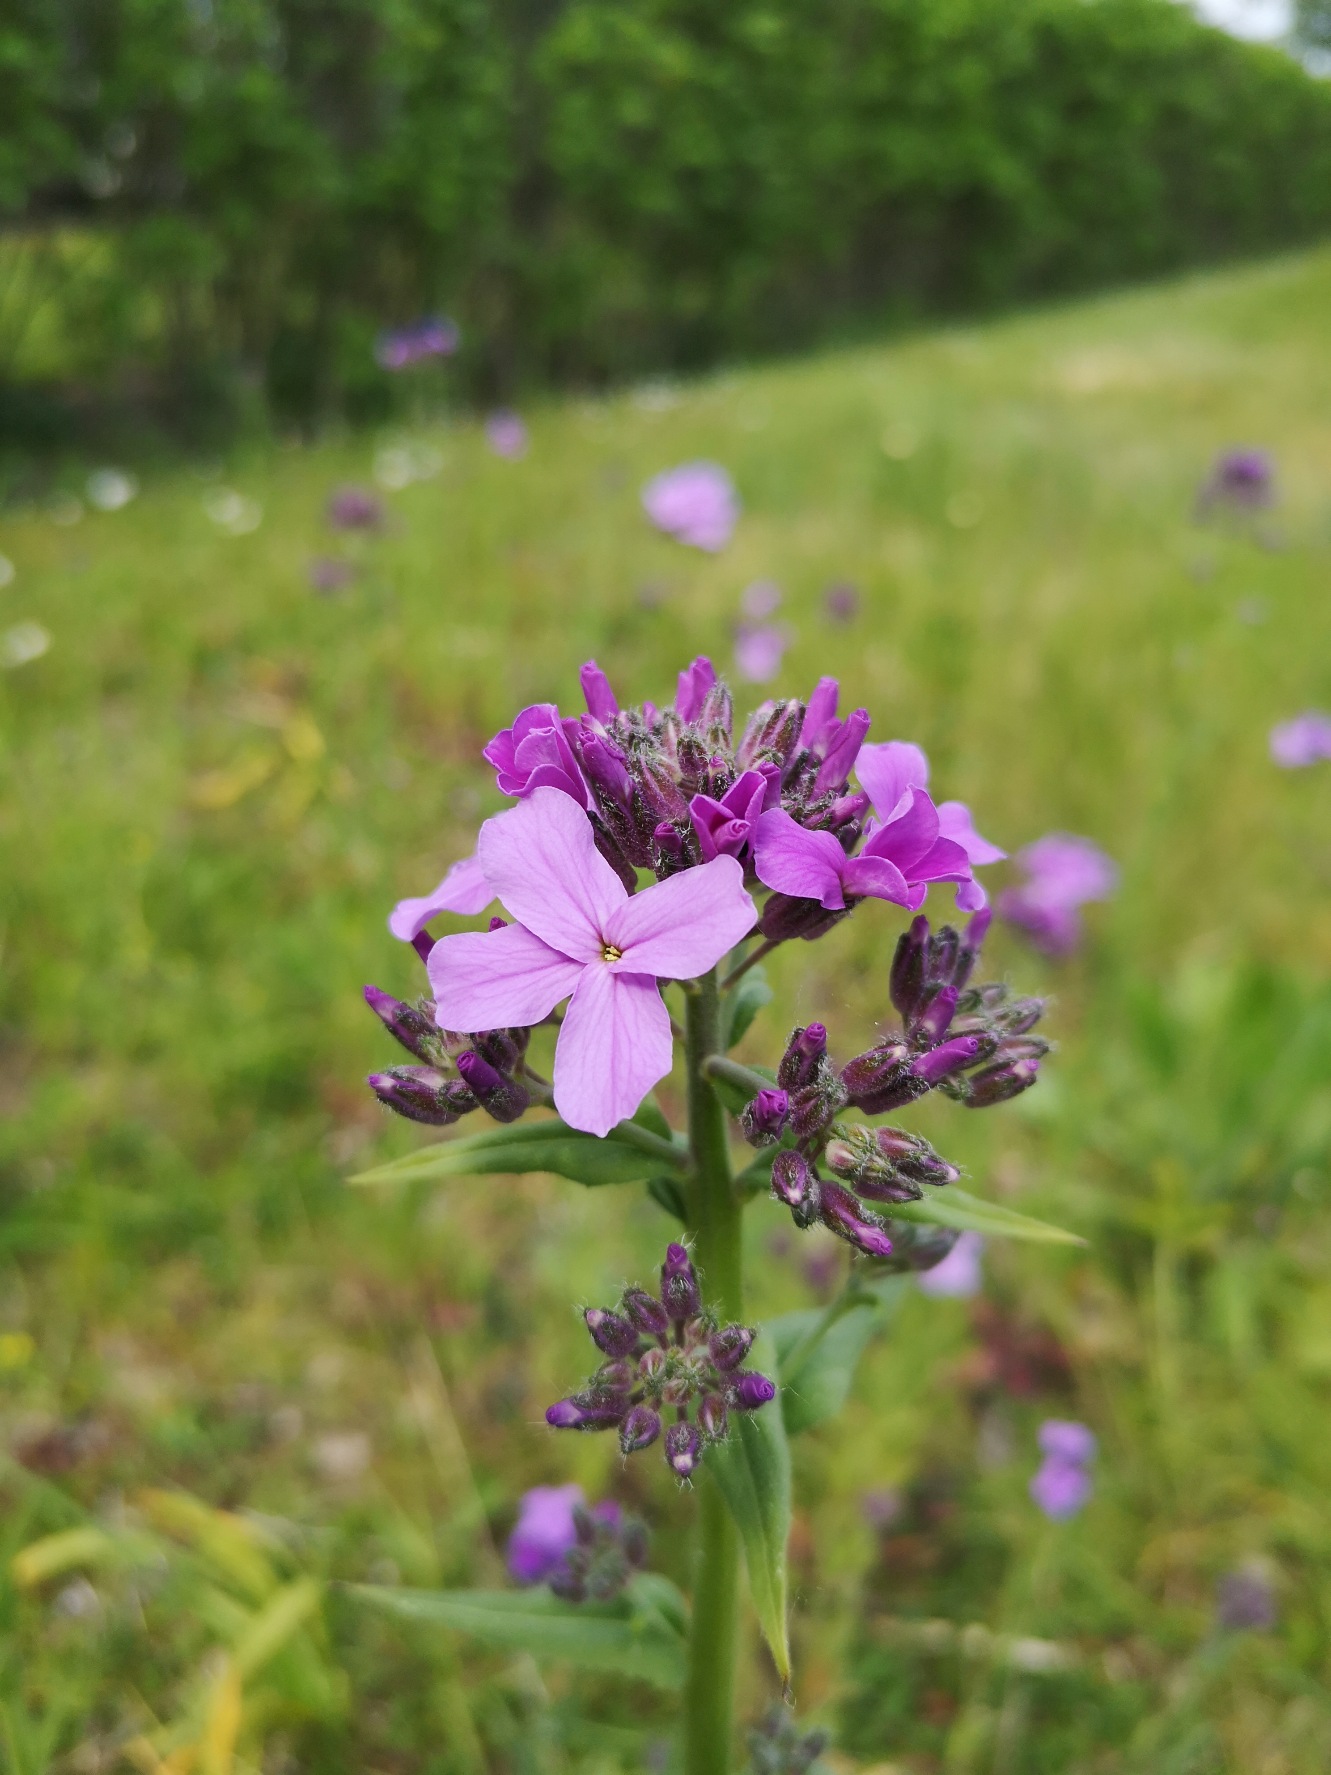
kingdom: Plantae
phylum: Tracheophyta
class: Magnoliopsida
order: Brassicales
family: Brassicaceae
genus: Hesperis
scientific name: Hesperis matronalis
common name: Aftenstjerne
